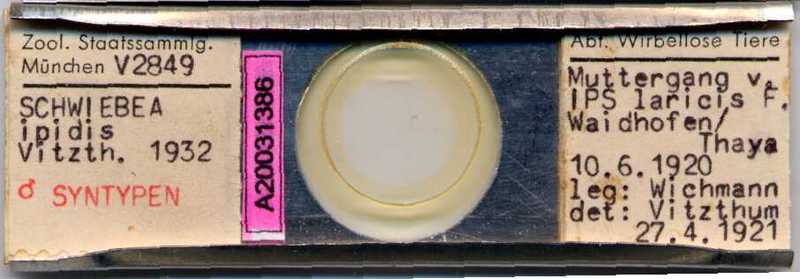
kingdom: Animalia
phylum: Arthropoda
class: Arachnida
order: Sarcoptiformes
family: Acaridae
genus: Schwiebea
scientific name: Schwiebea
